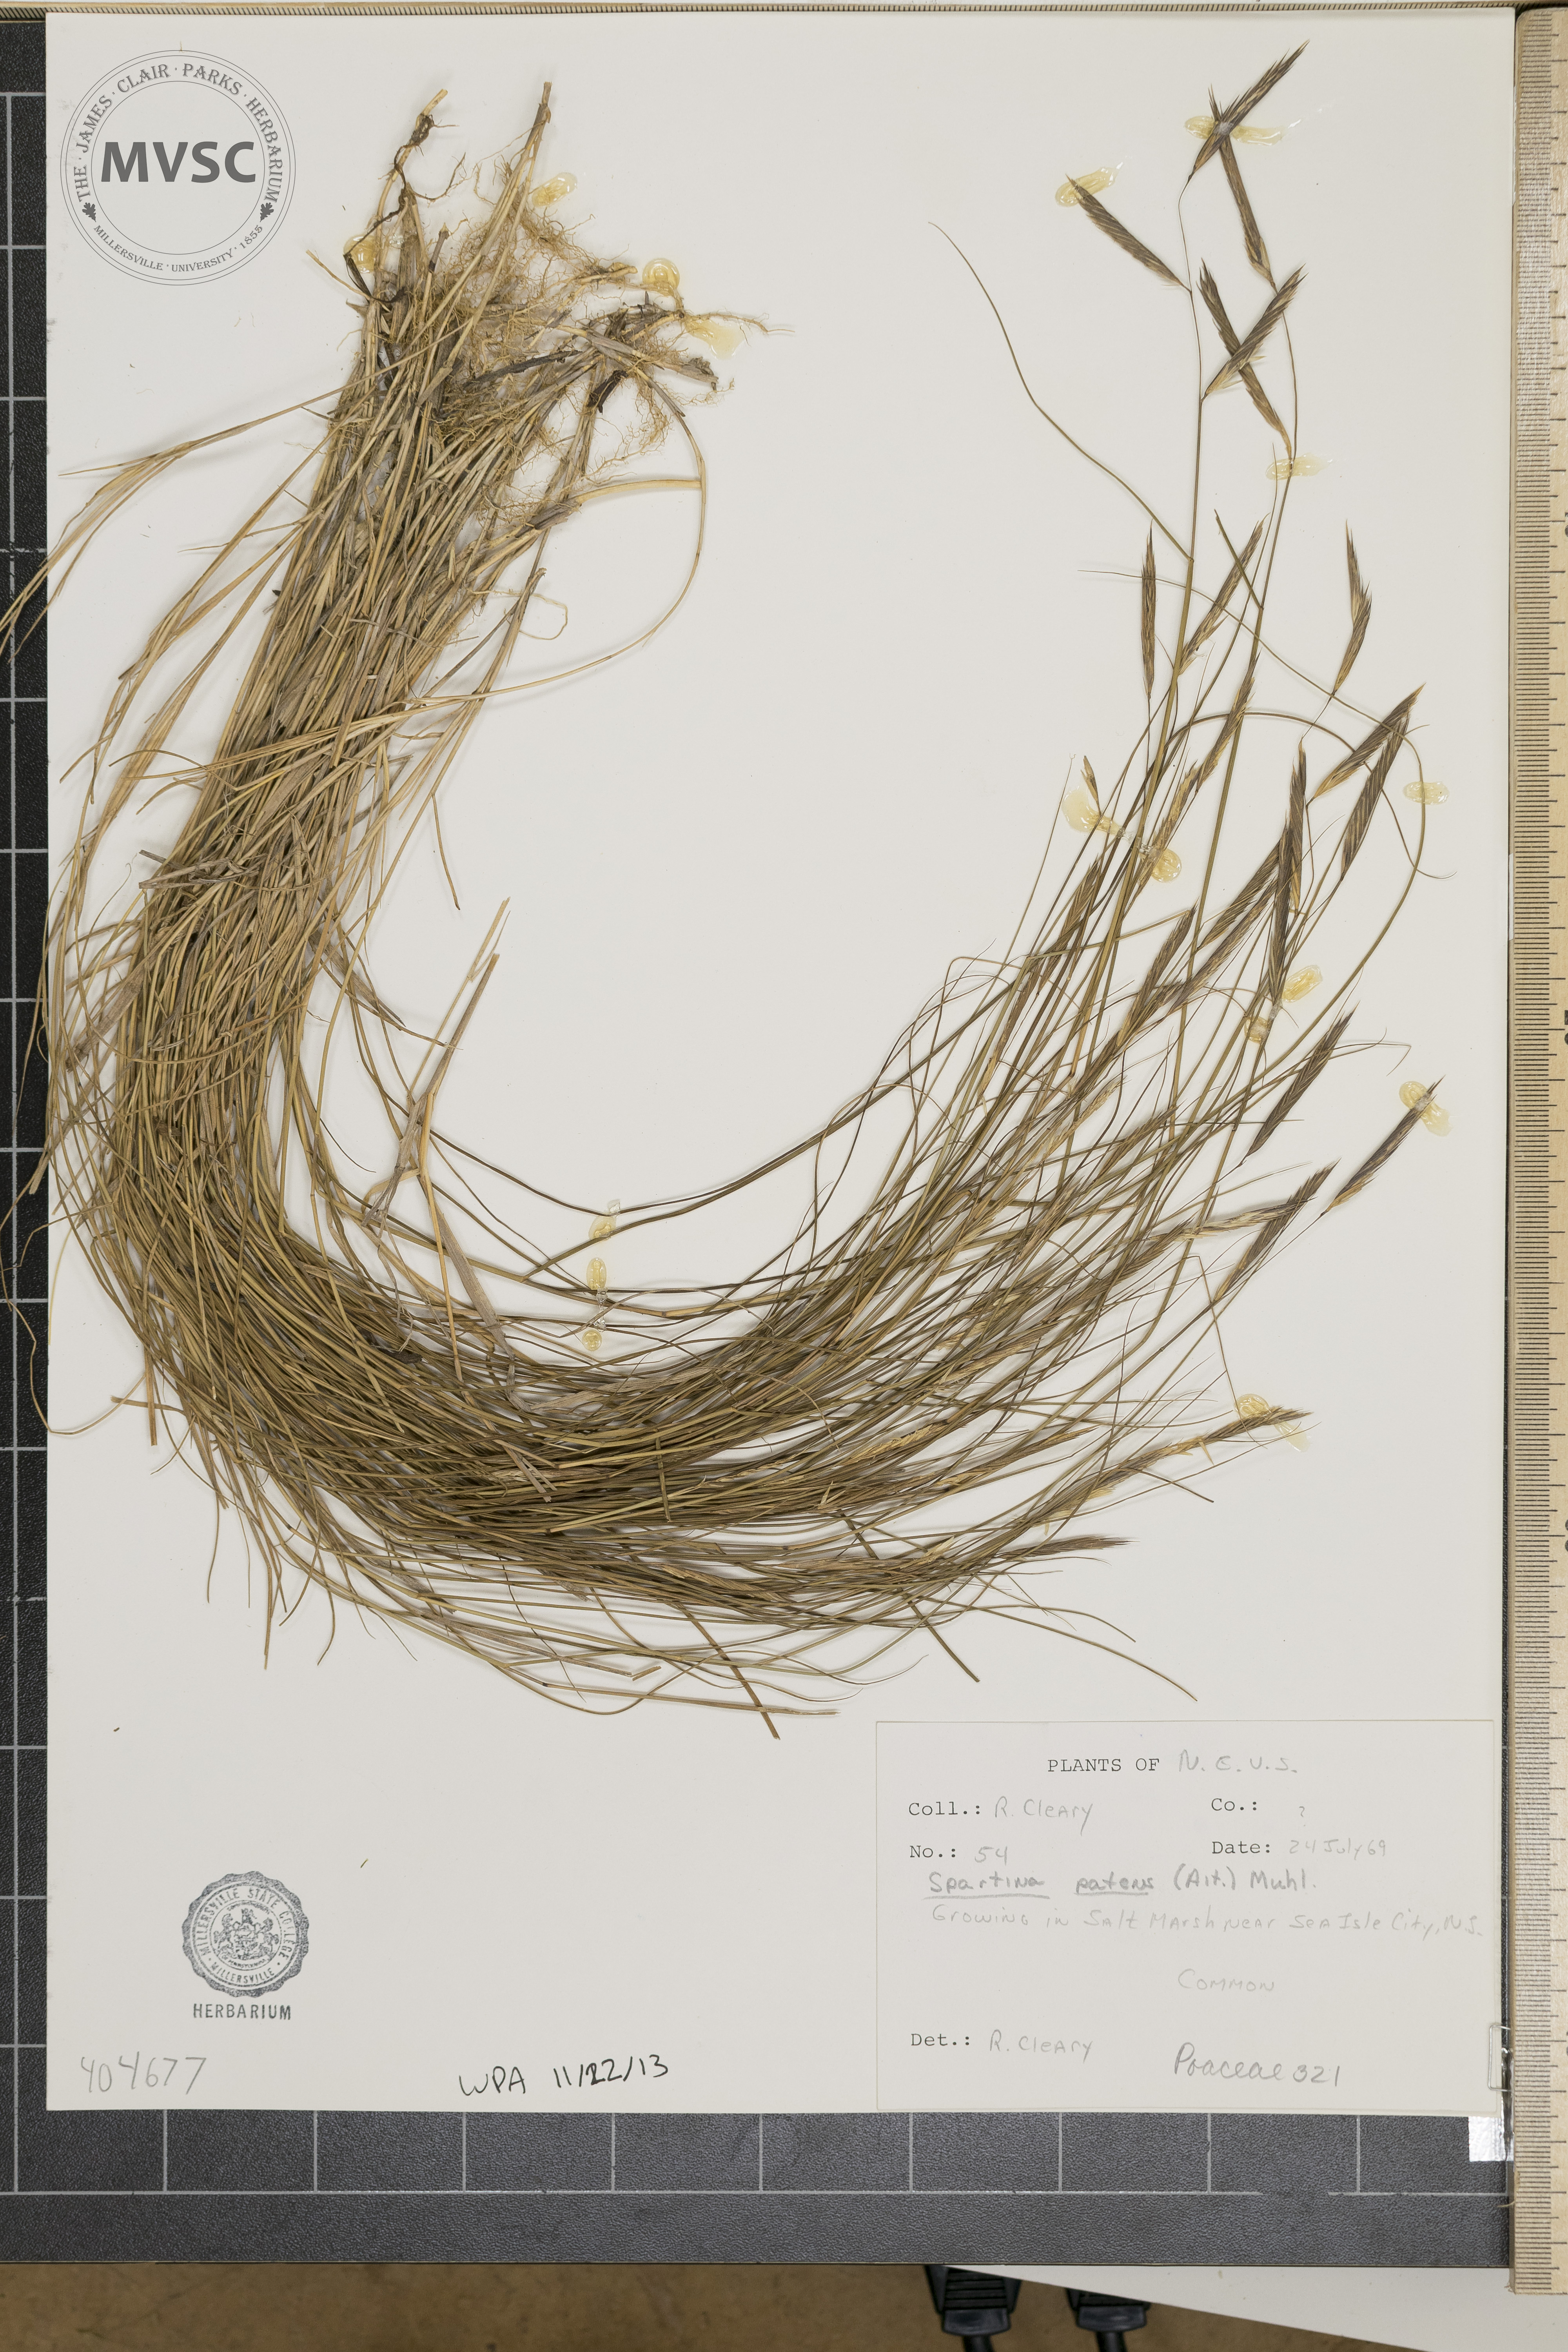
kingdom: Plantae
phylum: Tracheophyta
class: Liliopsida
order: Poales
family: Poaceae
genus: Sporobolus
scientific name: Sporobolus pumilus
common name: Highwater grass
